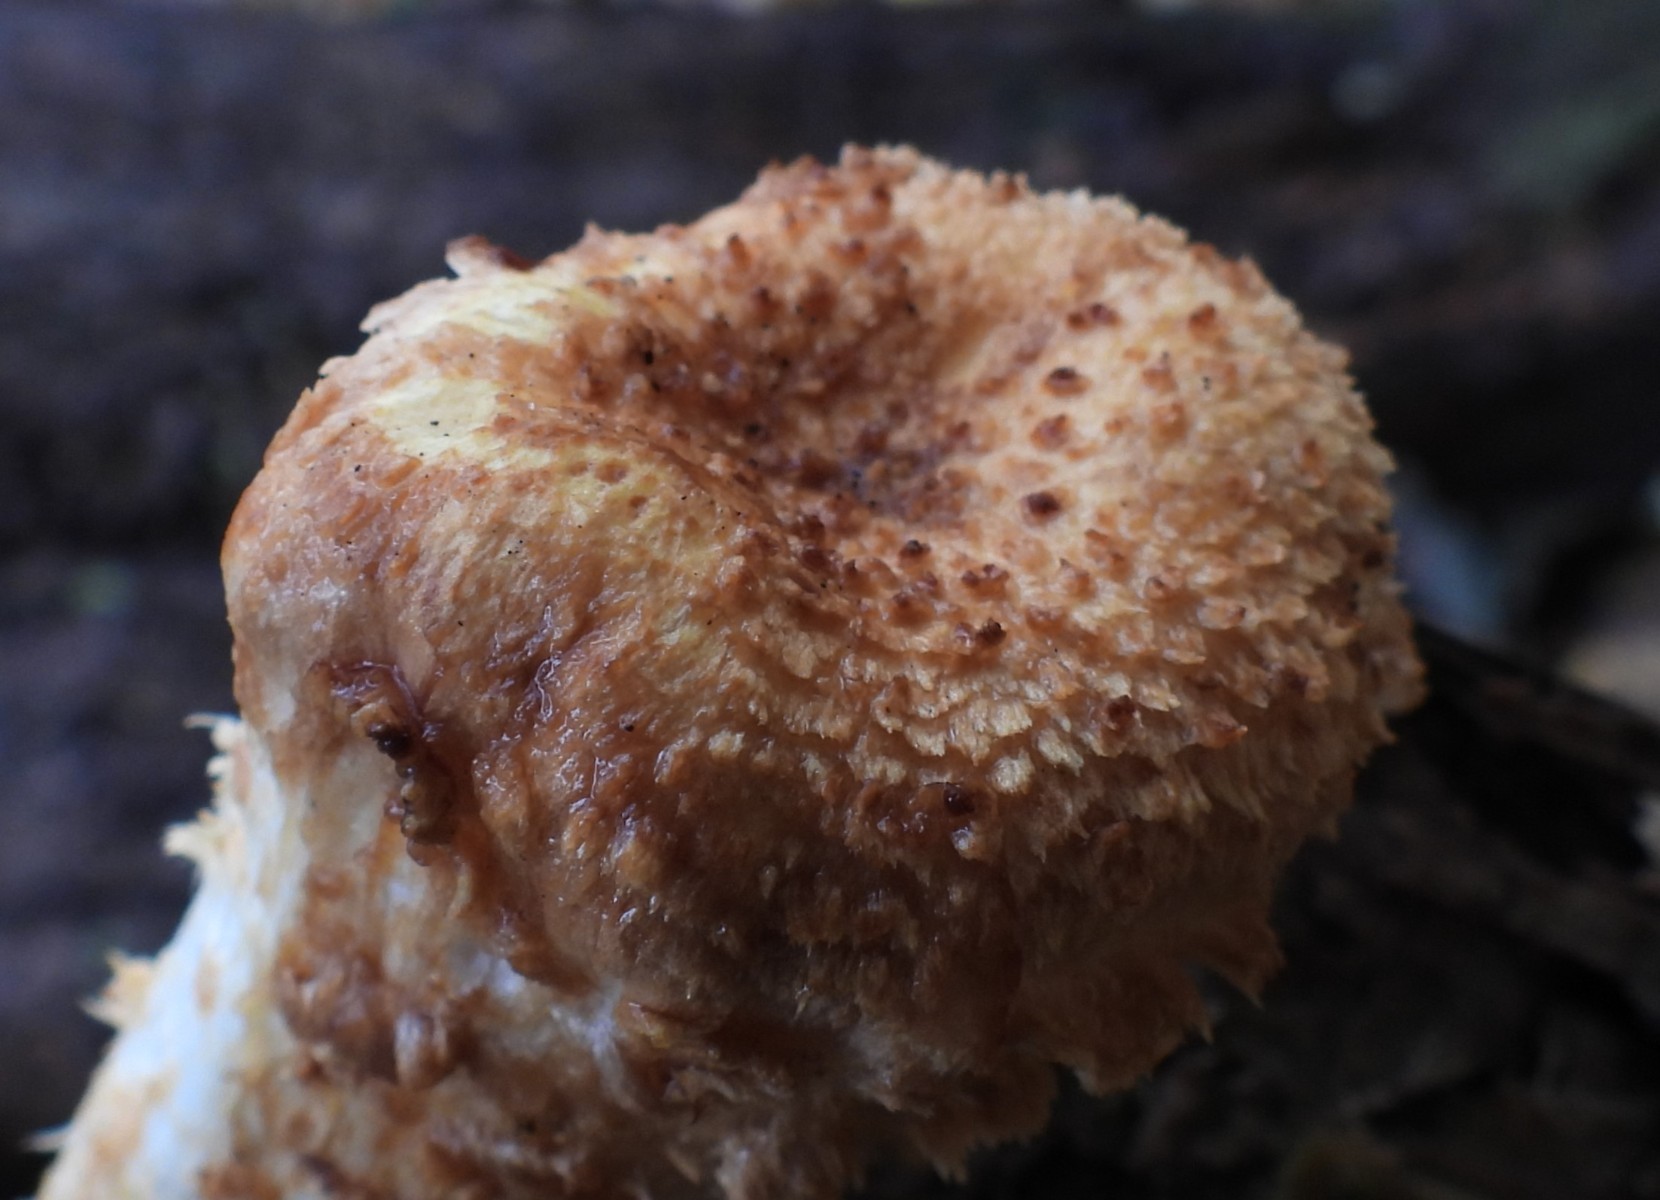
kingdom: Fungi
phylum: Basidiomycota
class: Agaricomycetes
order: Agaricales
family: Strophariaceae
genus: Pholiota
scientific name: Pholiota squarrosa
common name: krumskællet skælhat
